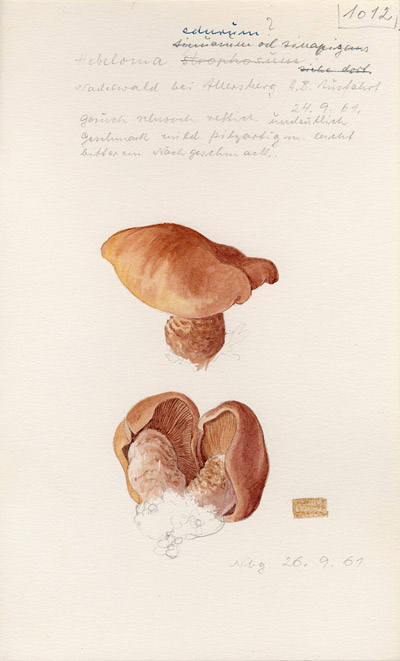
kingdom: Fungi
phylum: Basidiomycota
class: Agaricomycetes
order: Agaricales
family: Hymenogastraceae
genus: Hebeloma
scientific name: Hebeloma laterinum
